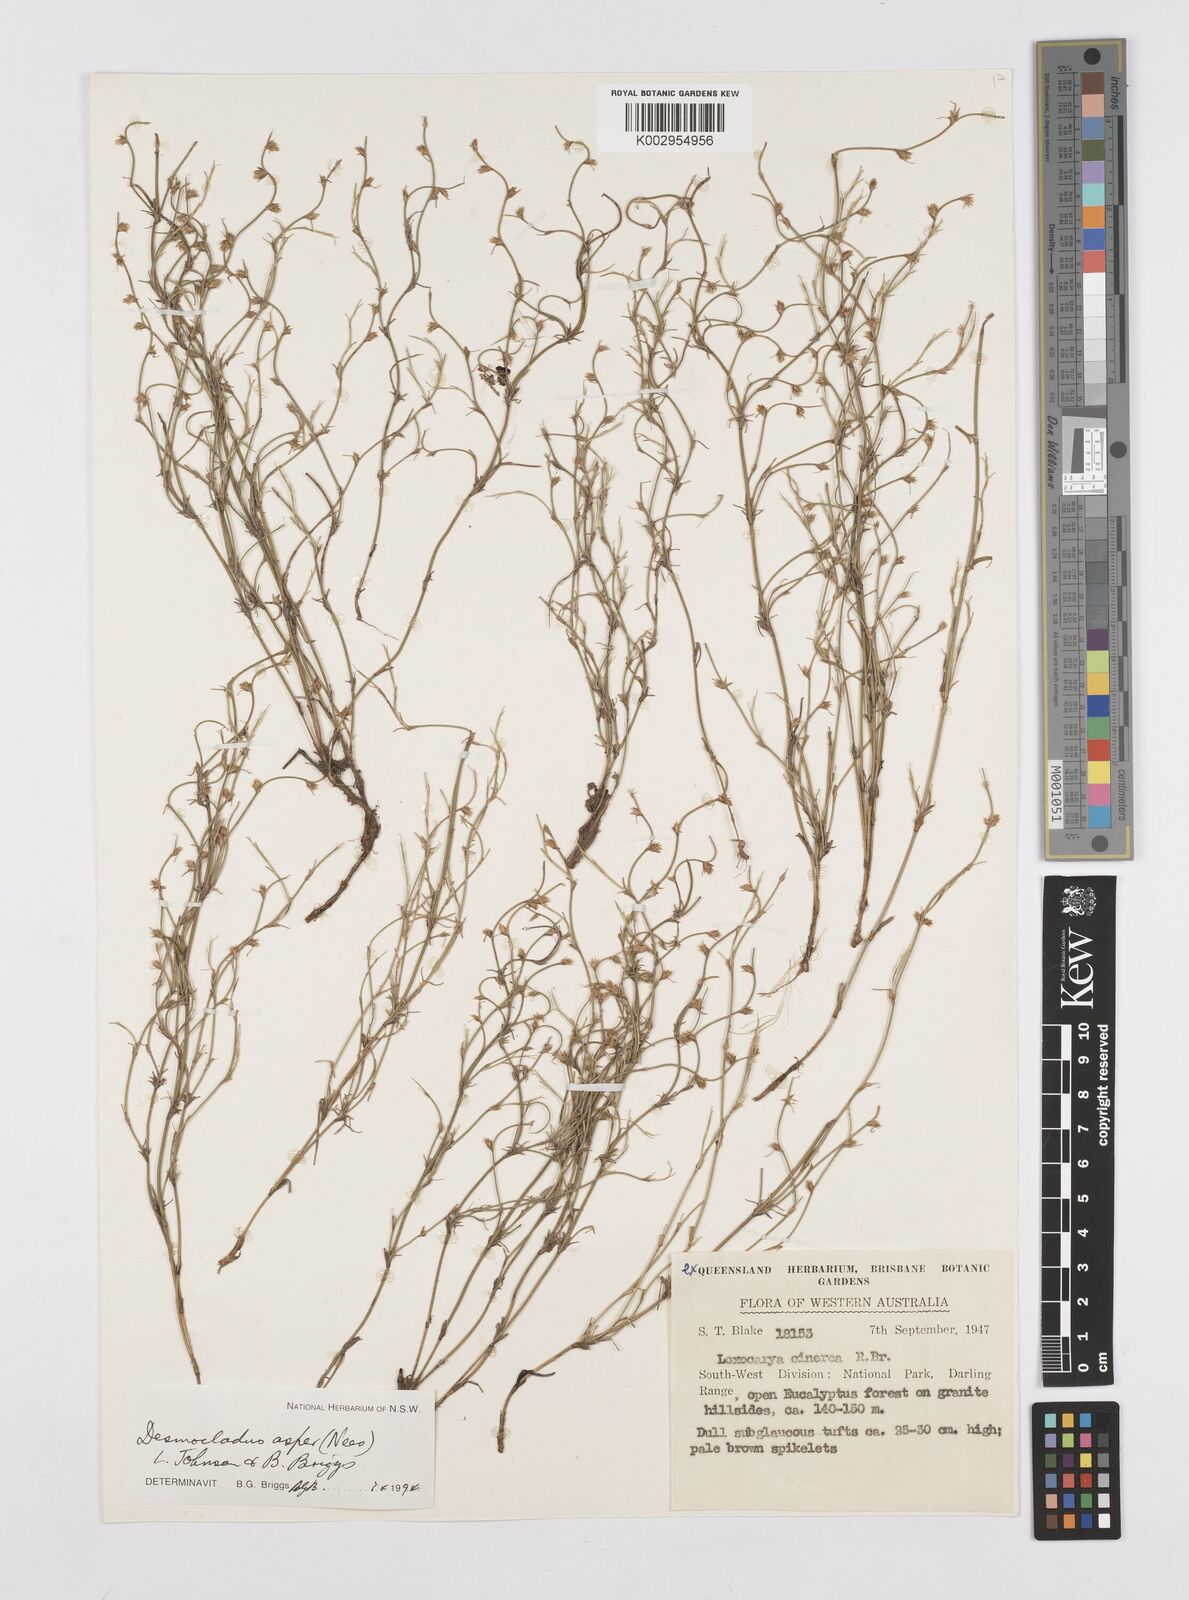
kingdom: Plantae
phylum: Tracheophyta
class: Liliopsida
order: Poales
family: Restionaceae
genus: Desmocladus
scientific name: Desmocladus asper
